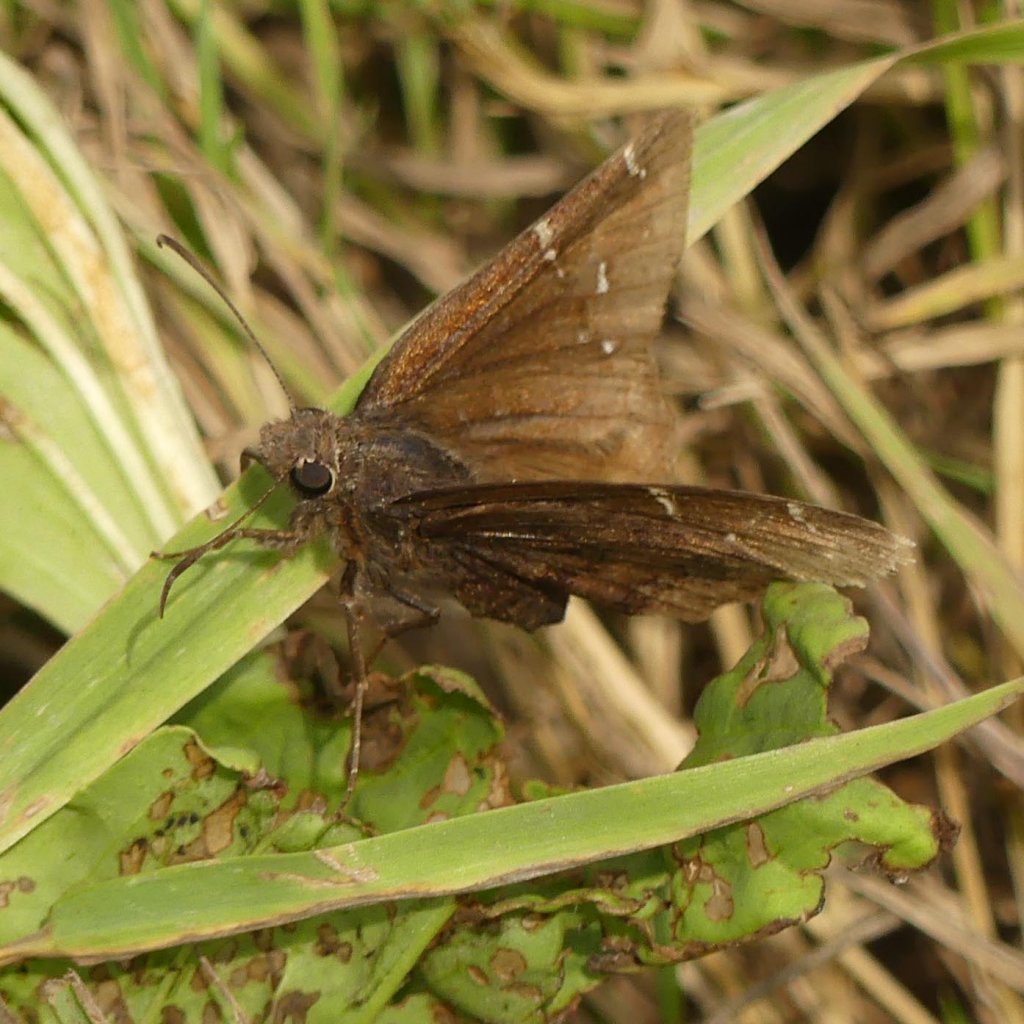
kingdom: Animalia
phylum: Arthropoda
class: Insecta
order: Lepidoptera
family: Hesperiidae
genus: Autochton
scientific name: Autochton
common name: Northern Cloudywing
